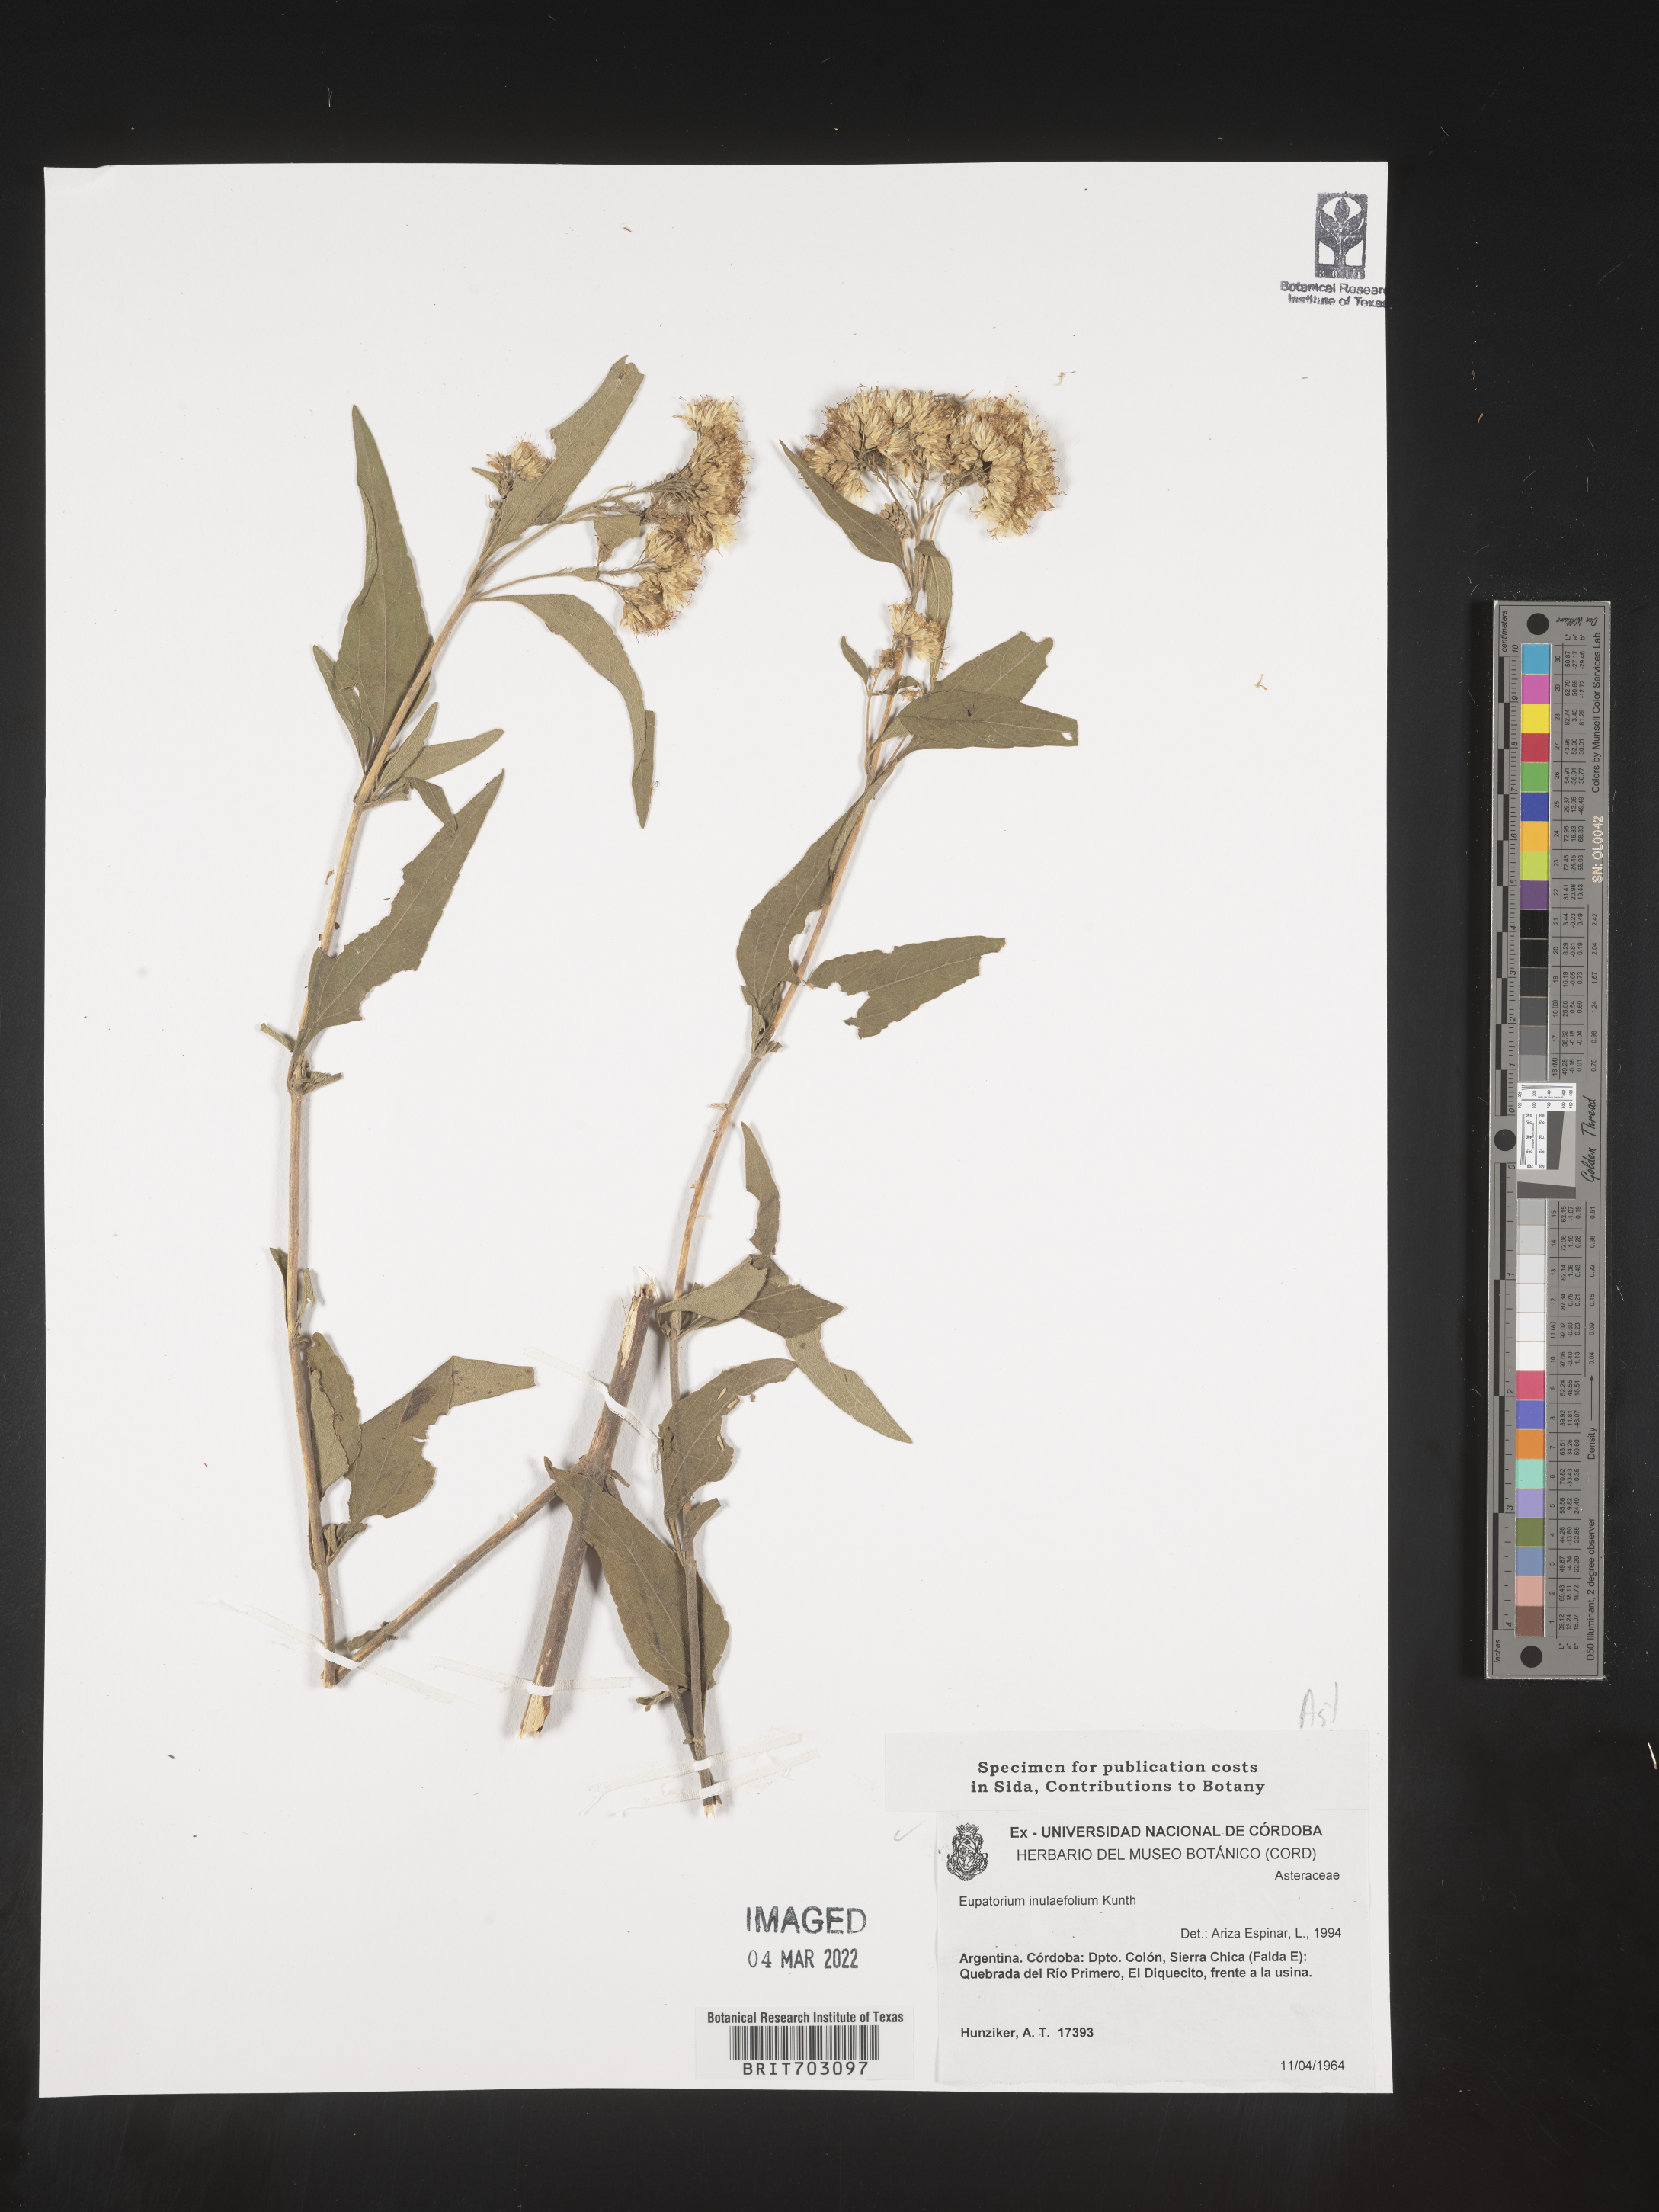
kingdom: Plantae
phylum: Tracheophyta
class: Magnoliopsida
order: Asterales
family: Asteraceae
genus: Eupatorium
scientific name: Eupatorium
